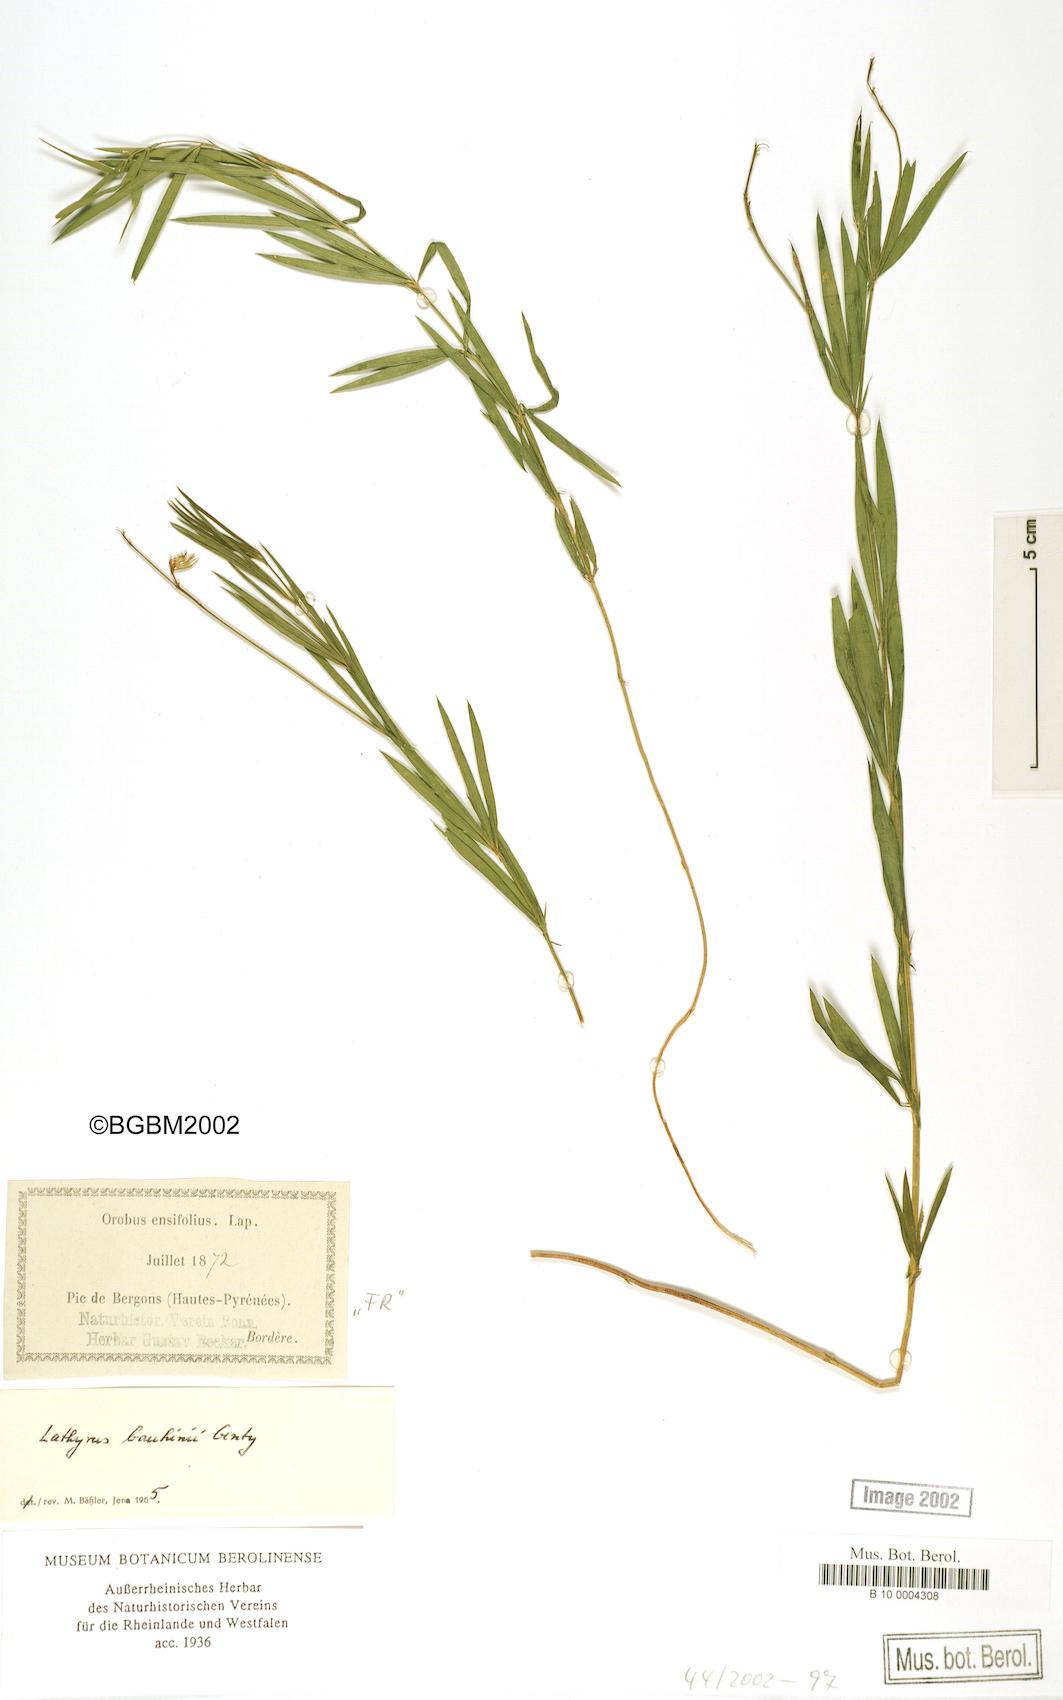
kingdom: Plantae
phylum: Tracheophyta
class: Magnoliopsida
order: Fabales
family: Fabaceae
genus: Lathyrus
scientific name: Lathyrus bauhini
